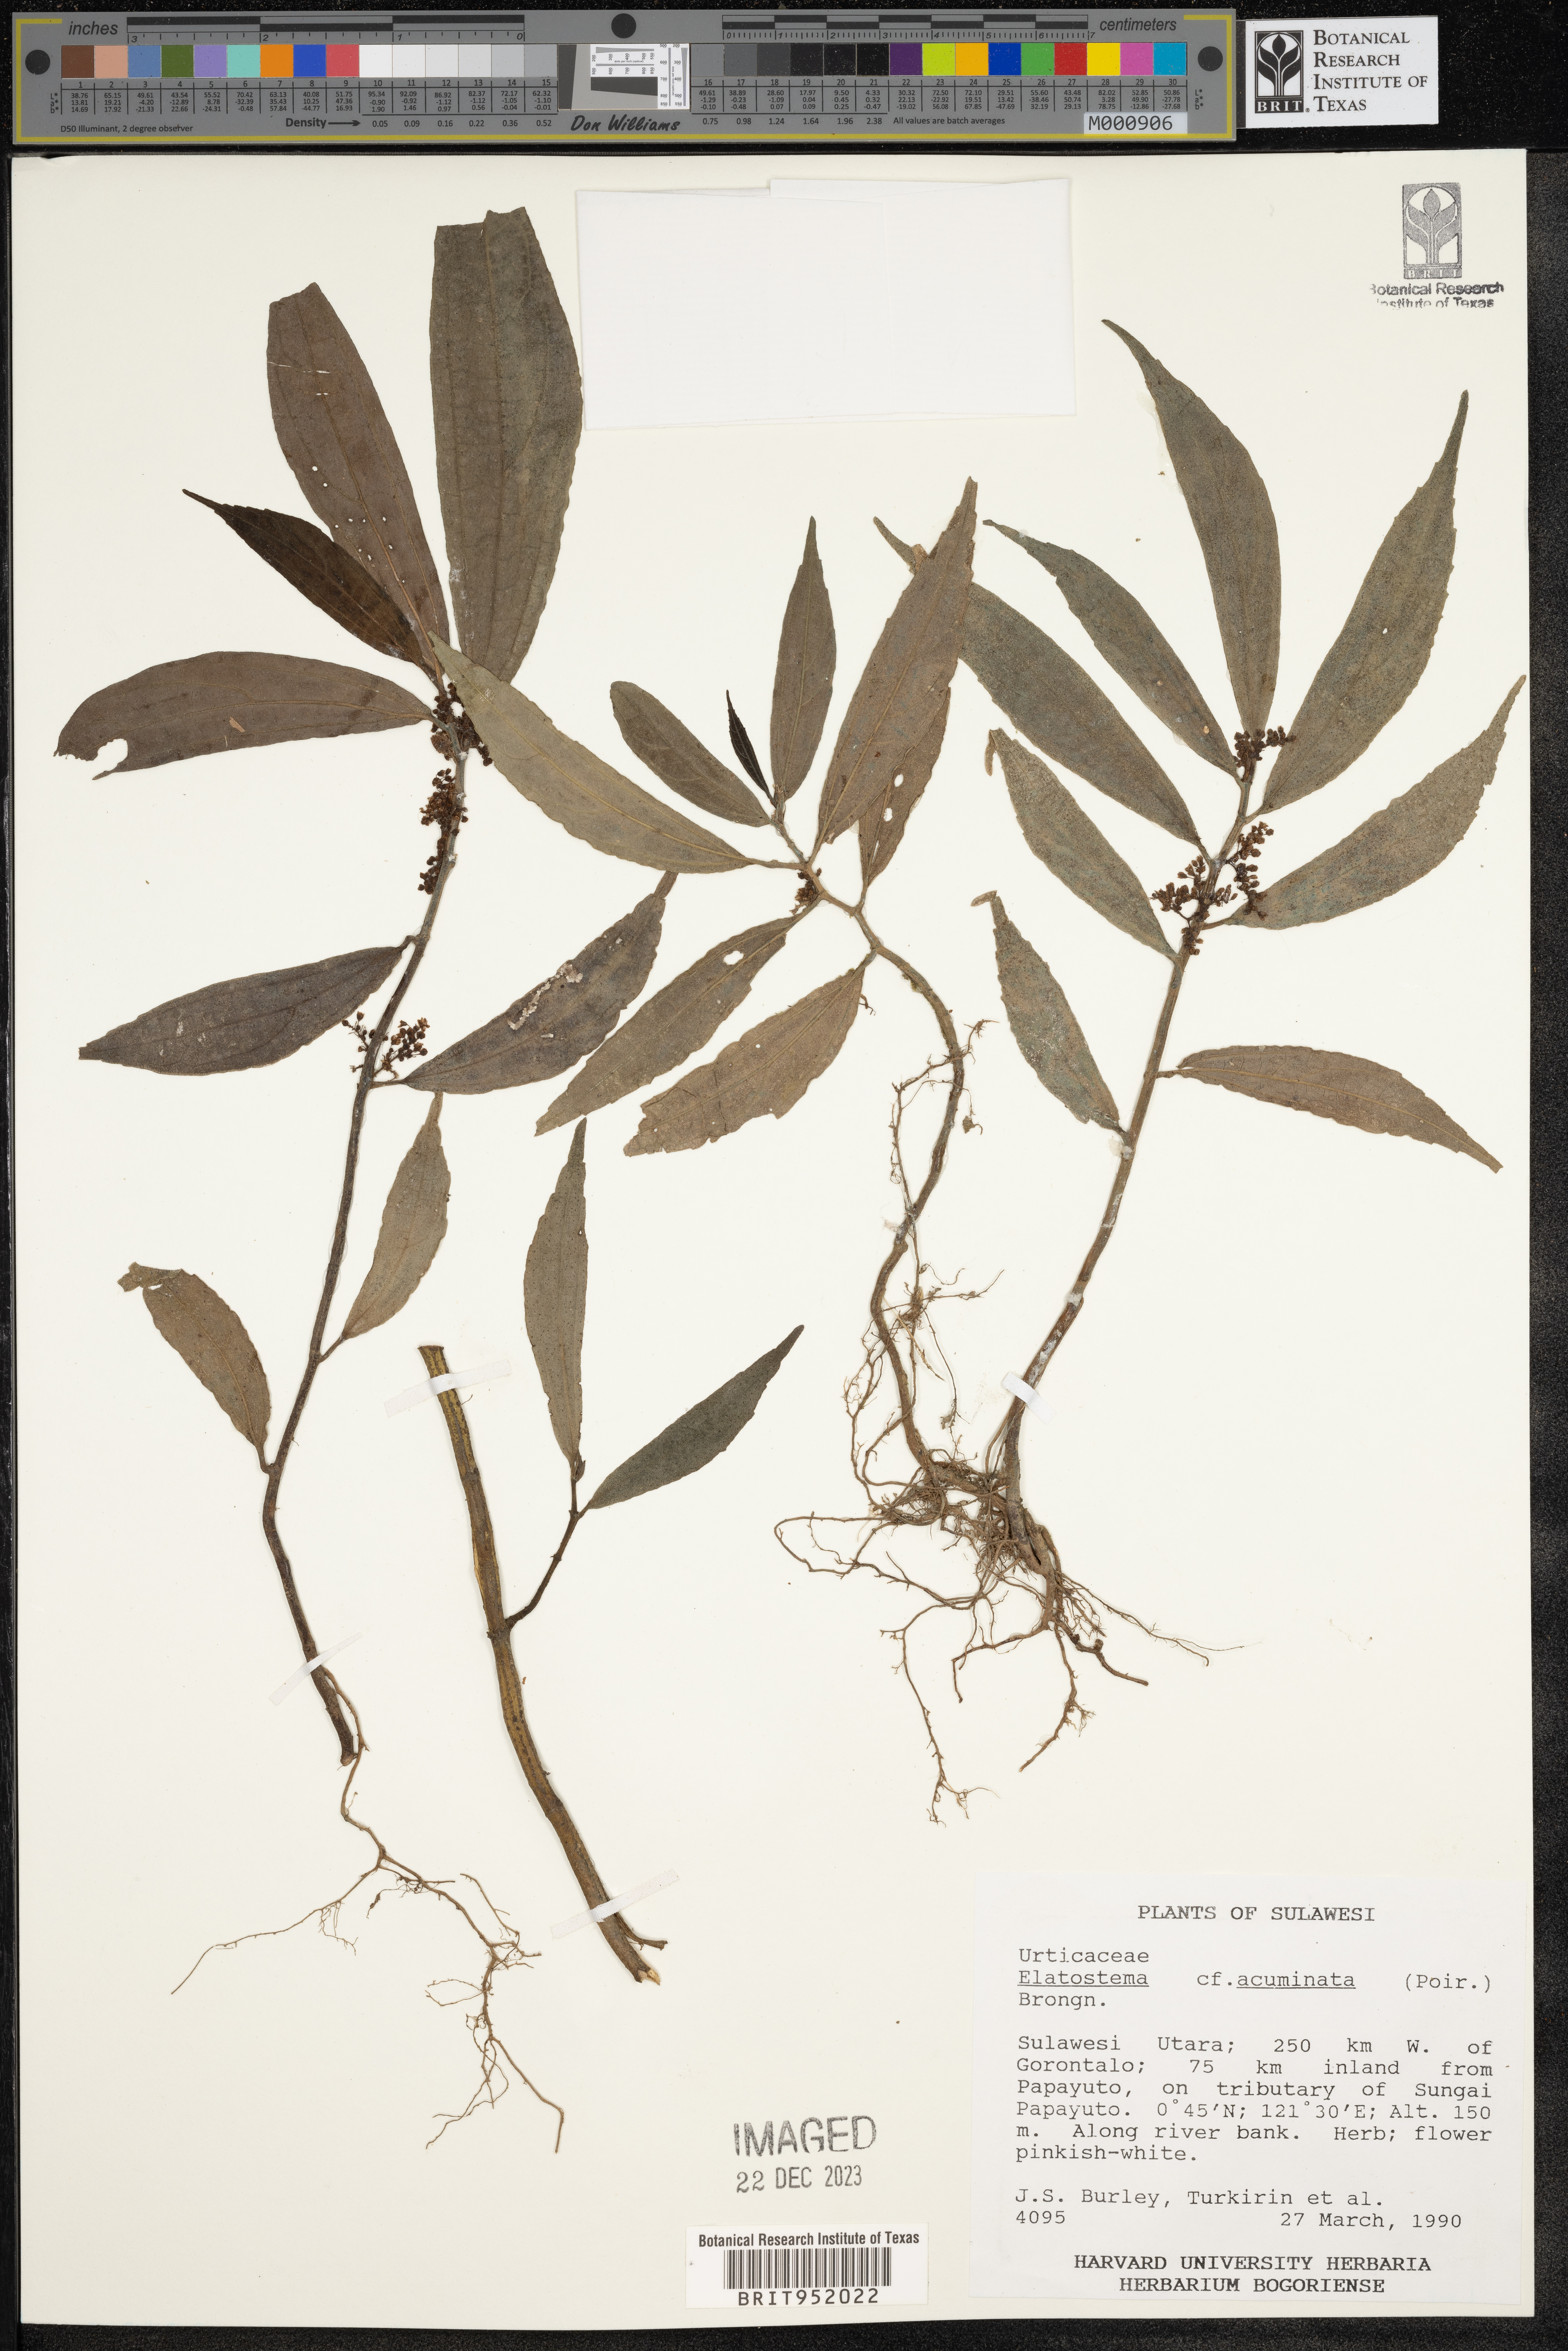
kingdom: Plantae
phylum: Tracheophyta
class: Magnoliopsida
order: Rosales
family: Urticaceae
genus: Elatostema
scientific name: Elatostema
